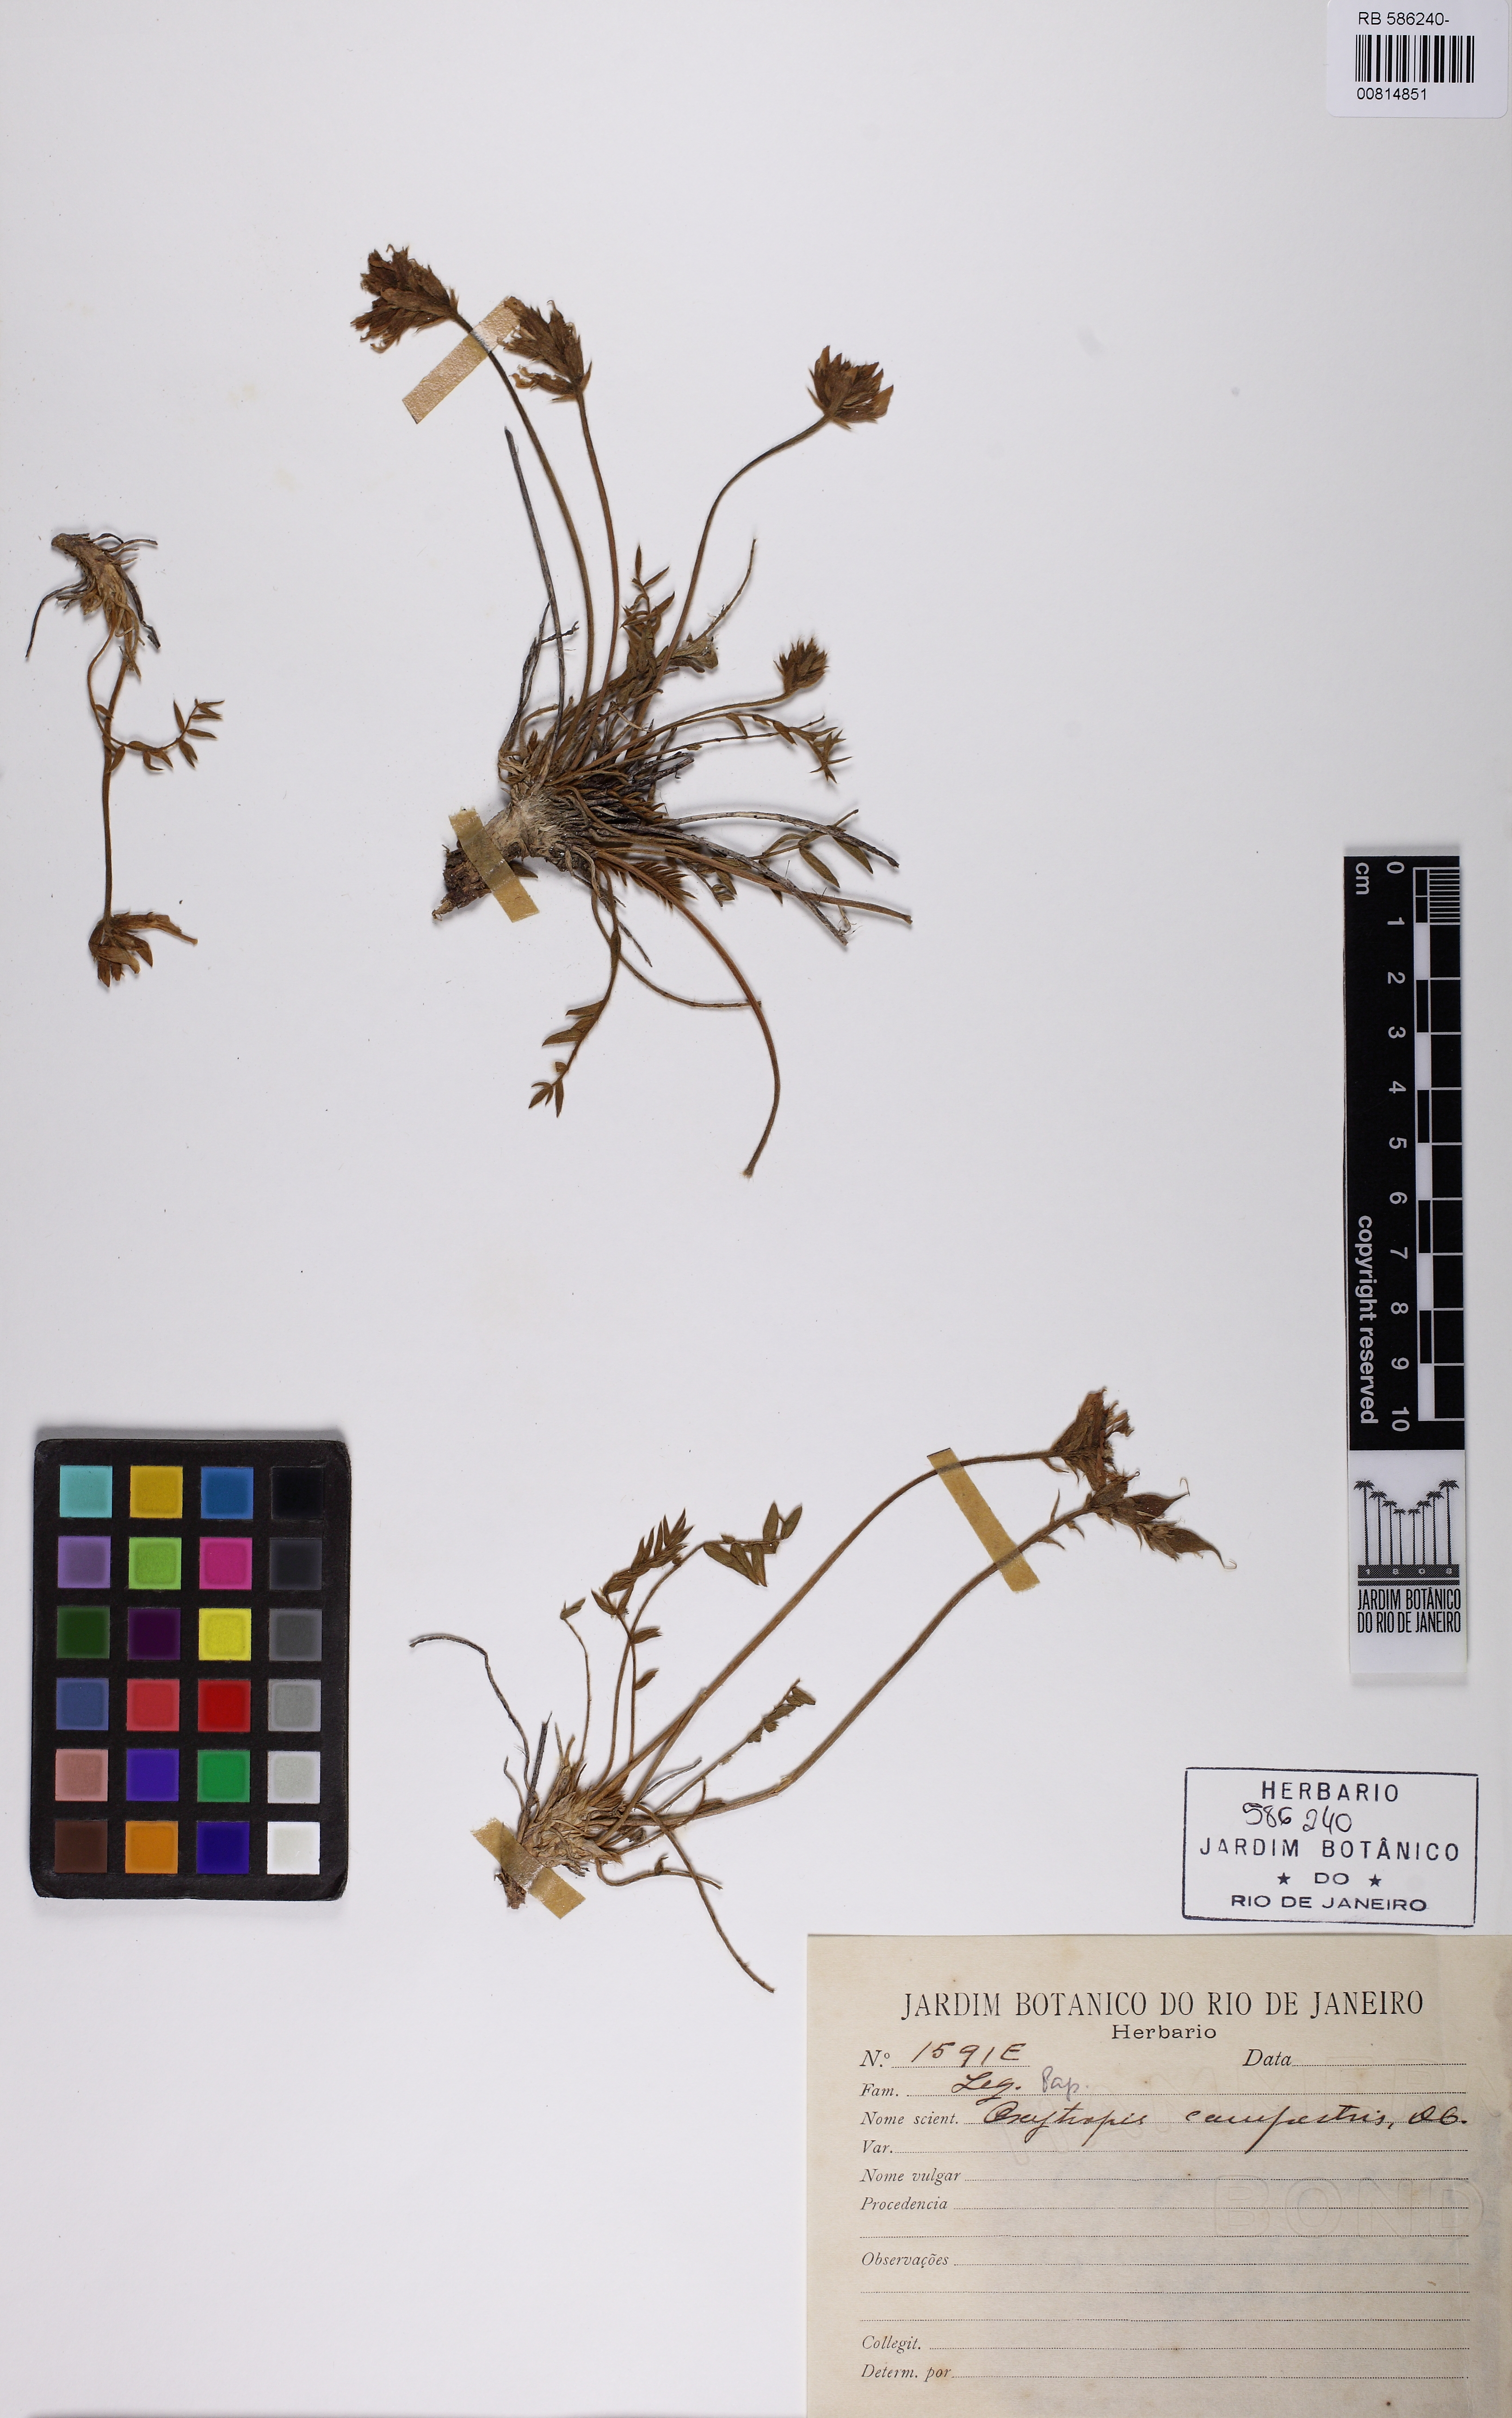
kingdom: Plantae
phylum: Tracheophyta
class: Magnoliopsida
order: Fabales
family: Fabaceae
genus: Oxytropis
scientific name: Oxytropis campestris
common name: Field locoweed
